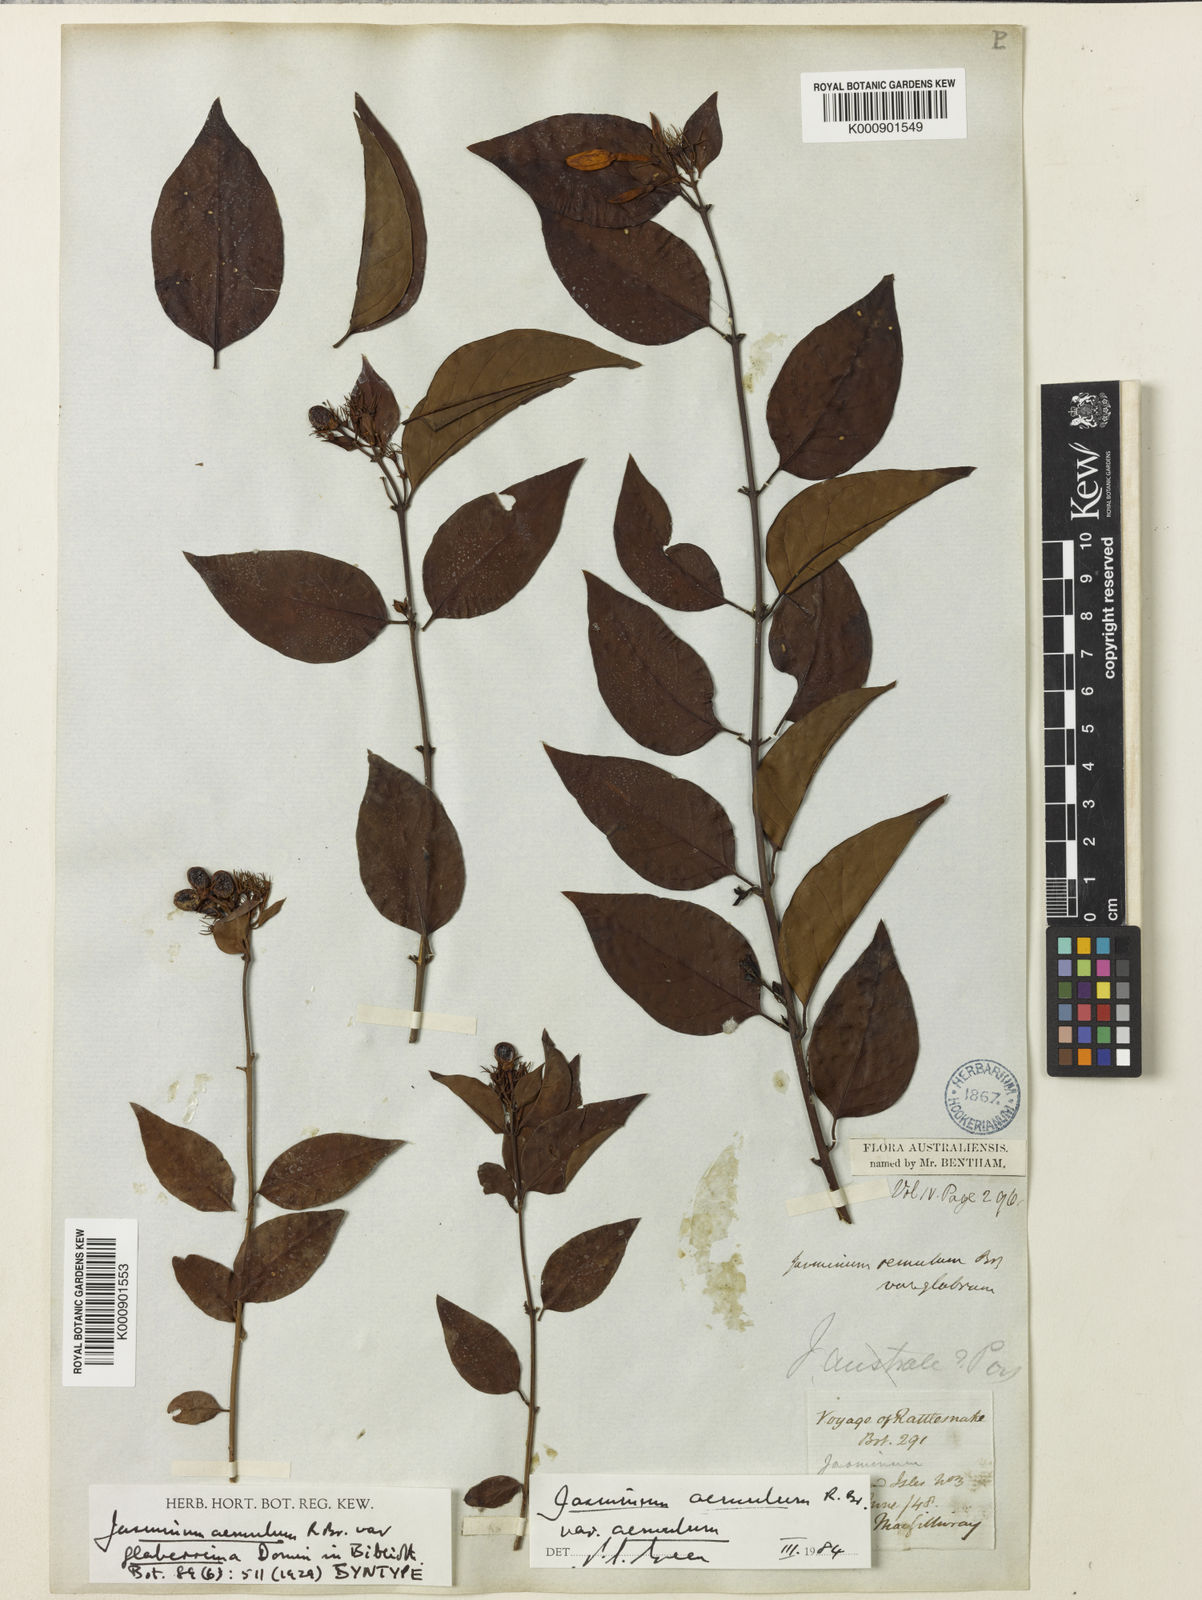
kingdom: Plantae
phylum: Tracheophyta
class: Magnoliopsida
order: Lamiales
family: Oleaceae
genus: Jasminum
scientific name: Jasminum
